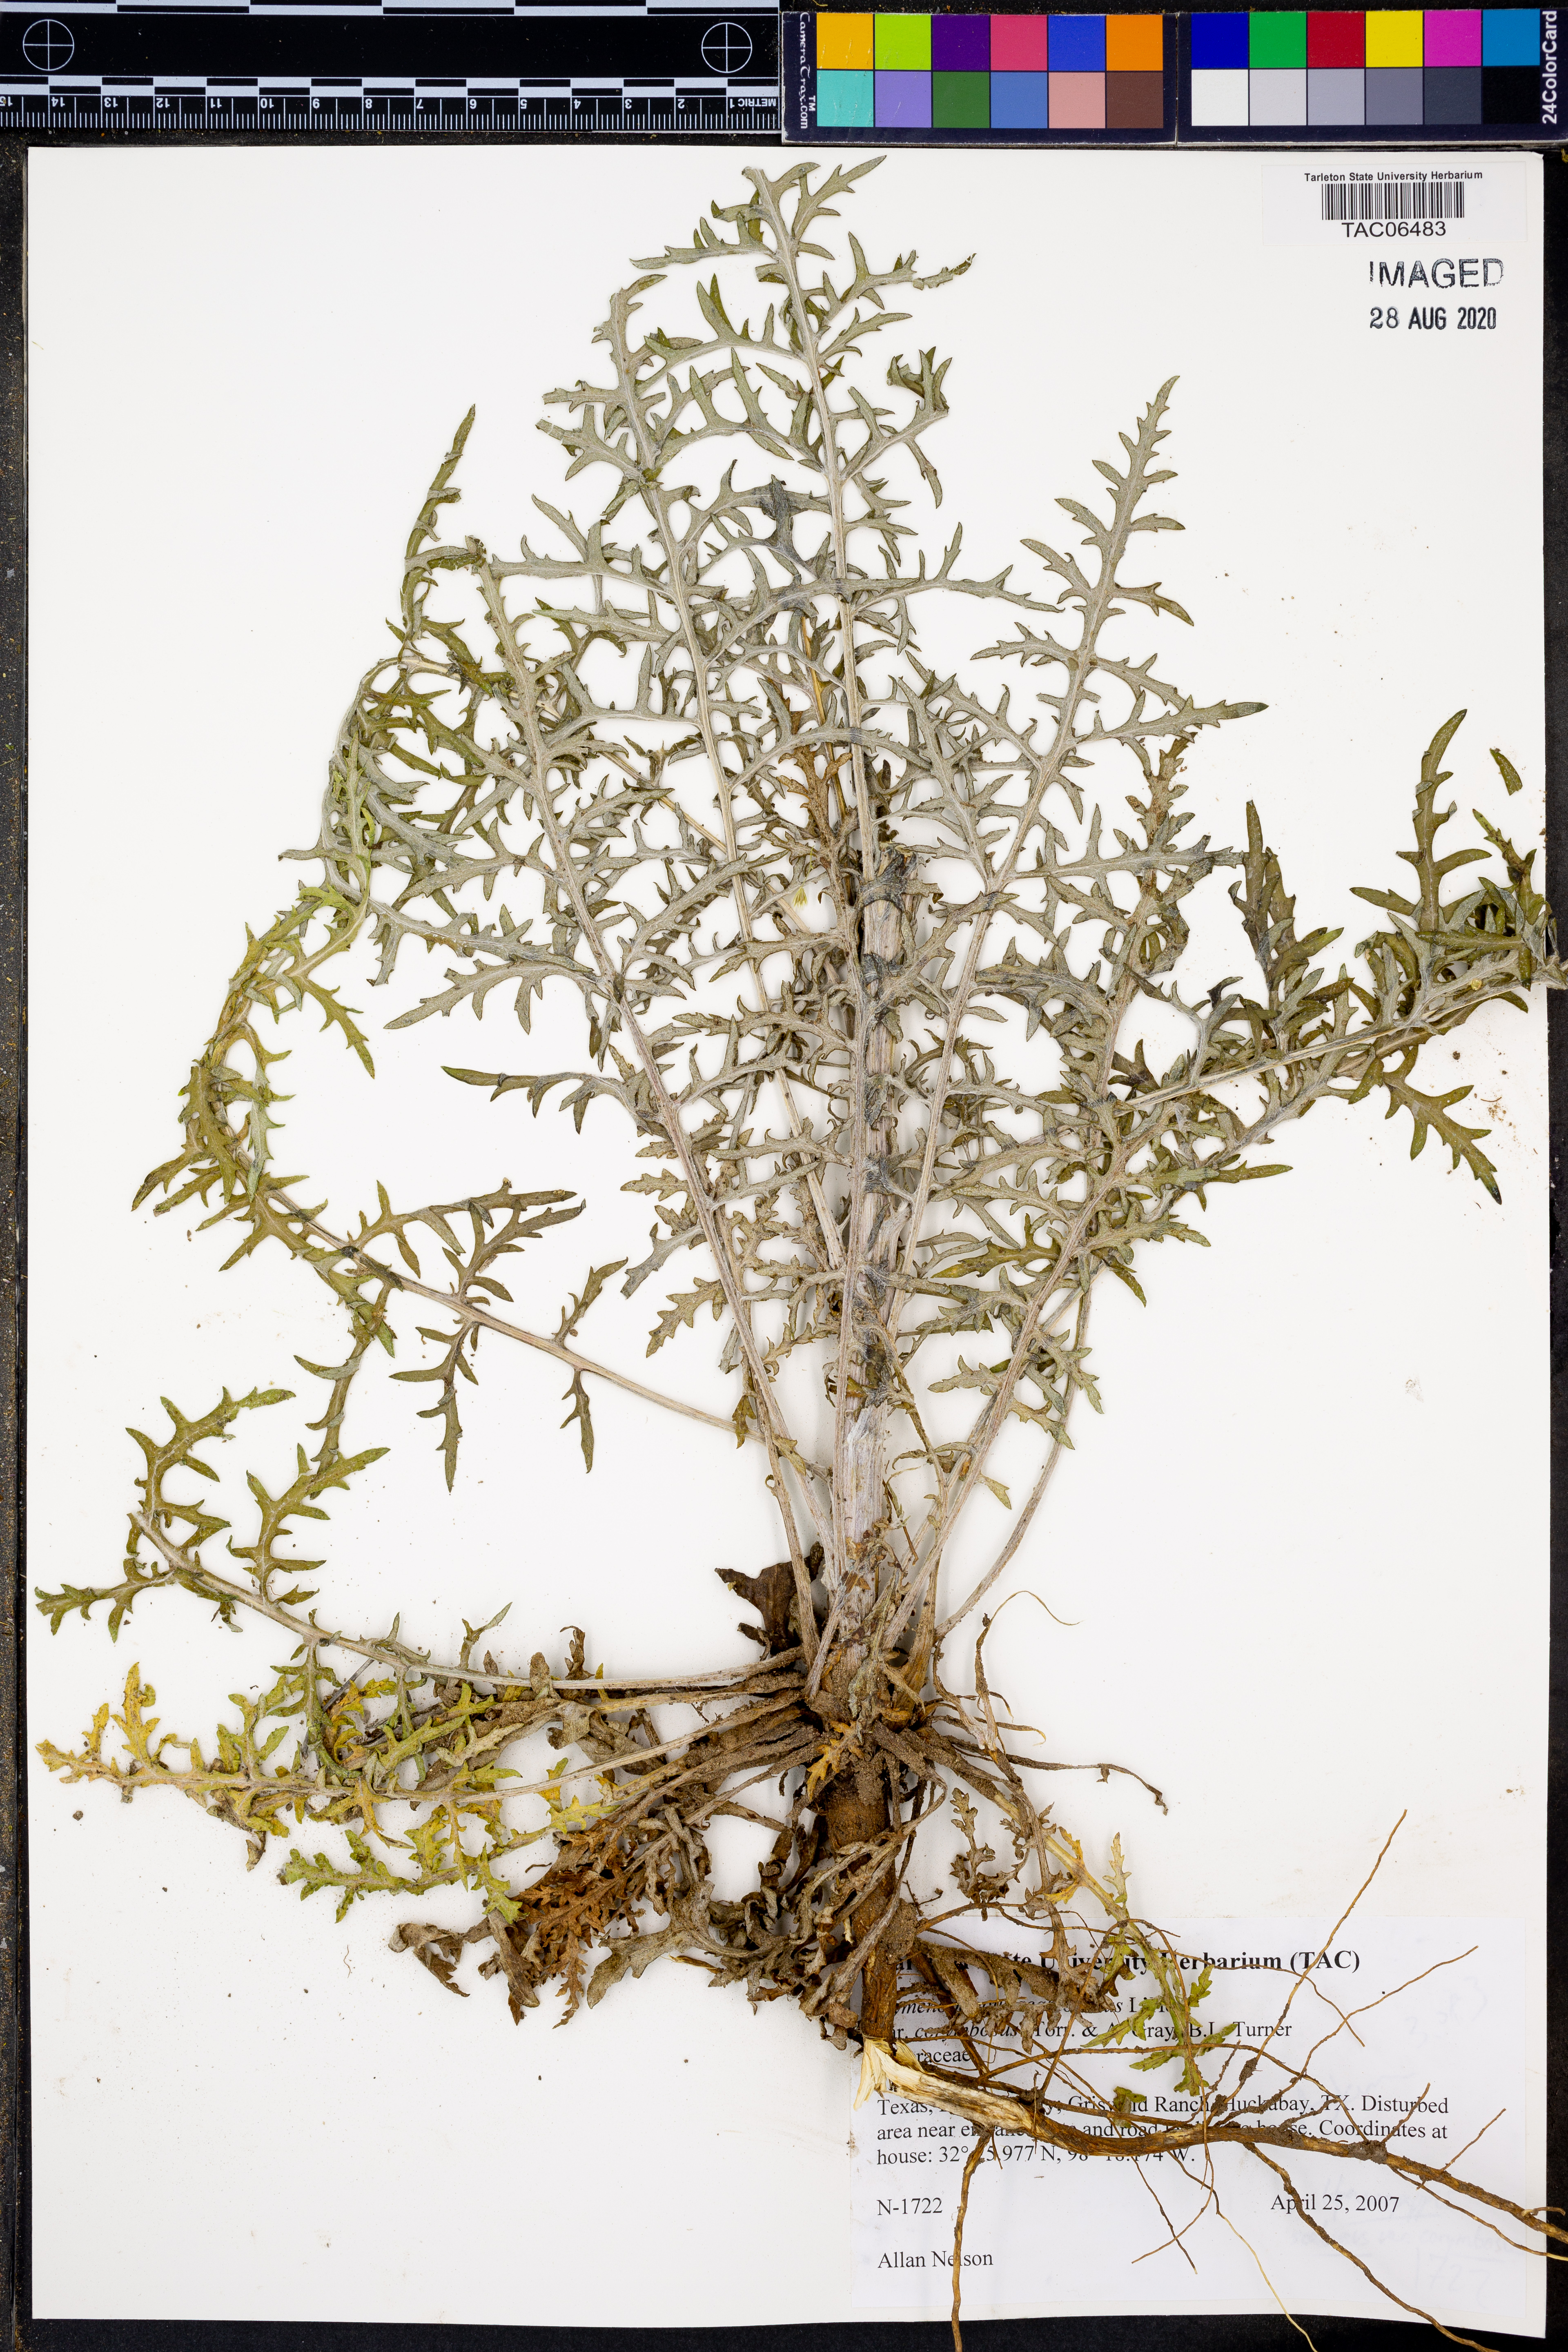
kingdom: Plantae
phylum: Tracheophyta
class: Magnoliopsida
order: Asterales
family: Asteraceae
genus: Hymenopappus
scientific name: Hymenopappus scabiosaeus
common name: Carolina woollywhite
